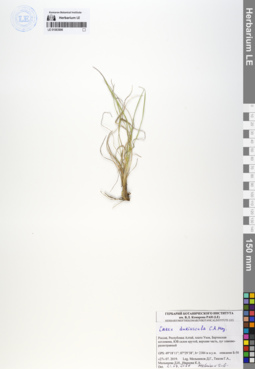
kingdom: Plantae
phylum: Tracheophyta
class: Liliopsida
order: Poales
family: Cyperaceae
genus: Carex
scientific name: Carex duriuscula
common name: Involute-leaved sedge
